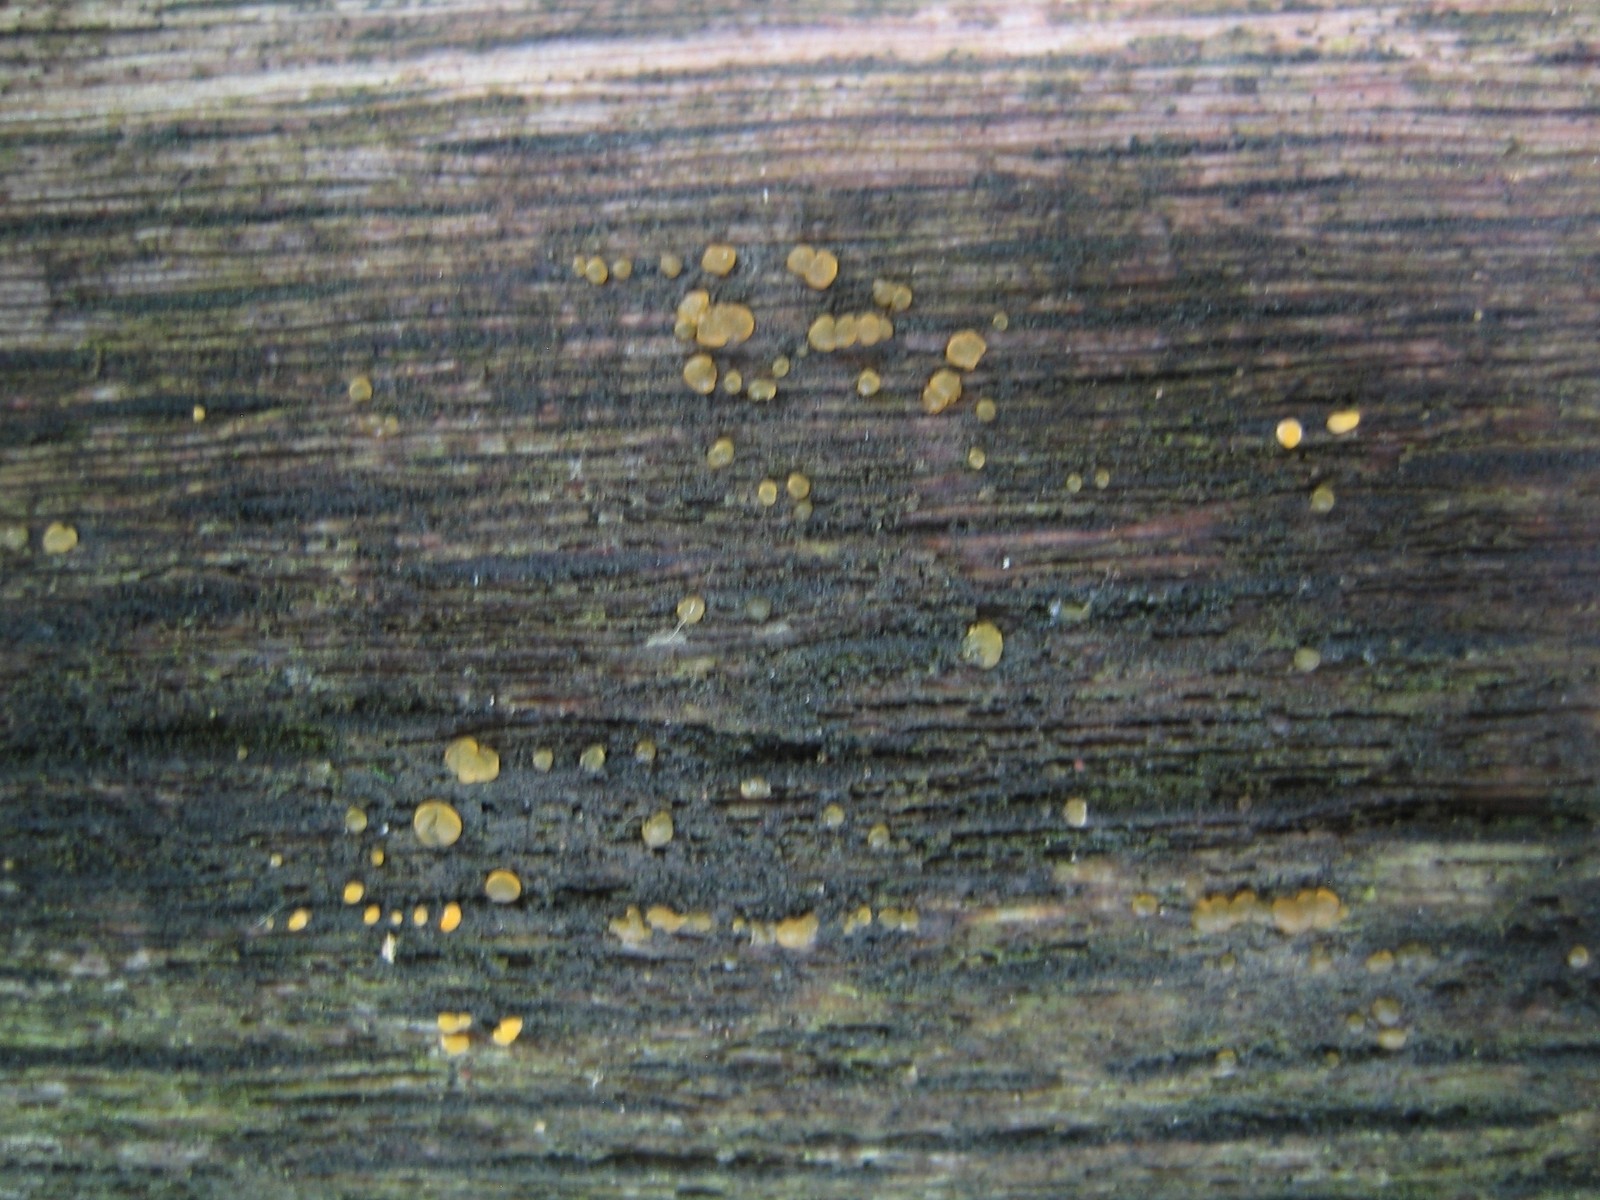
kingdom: Fungi
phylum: Basidiomycota
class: Dacrymycetes
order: Dacrymycetales
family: Dacrymycetaceae
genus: Dacrymyces
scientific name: Dacrymyces
